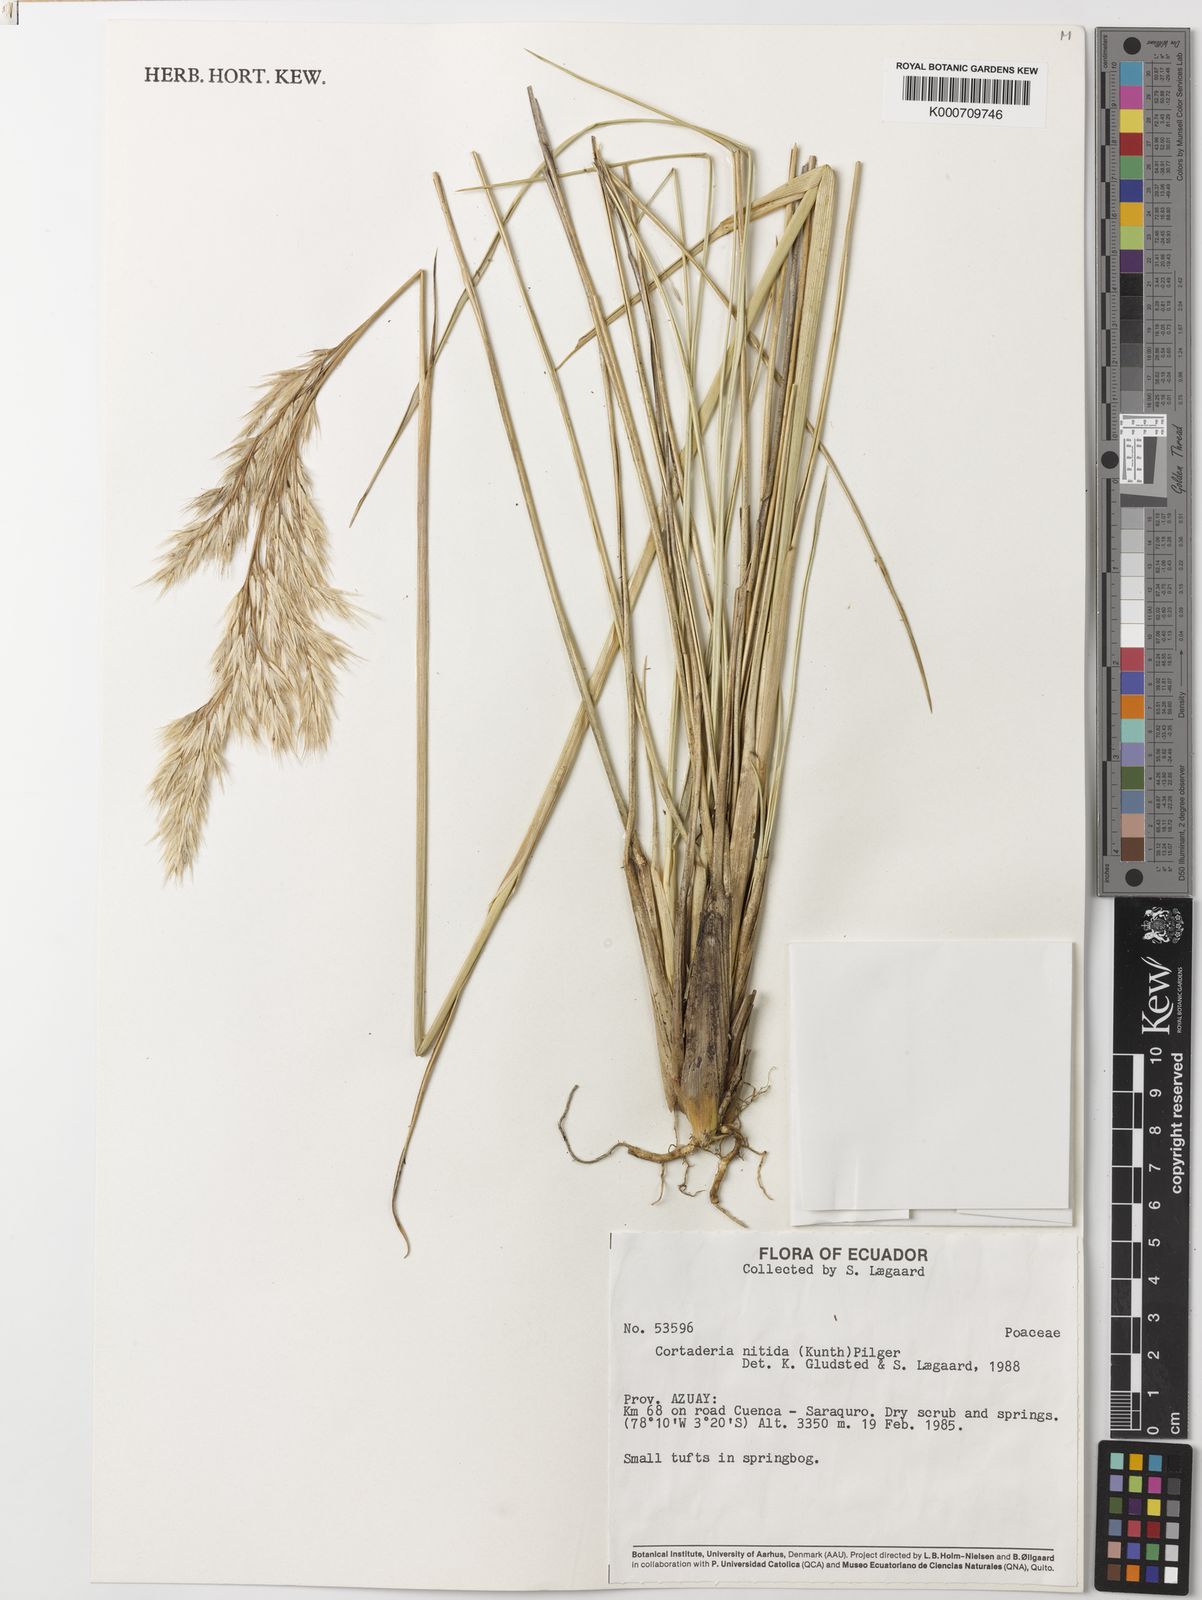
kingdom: Plantae
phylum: Tracheophyta
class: Liliopsida
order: Poales
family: Poaceae
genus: Cortaderia
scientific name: Cortaderia nitida
